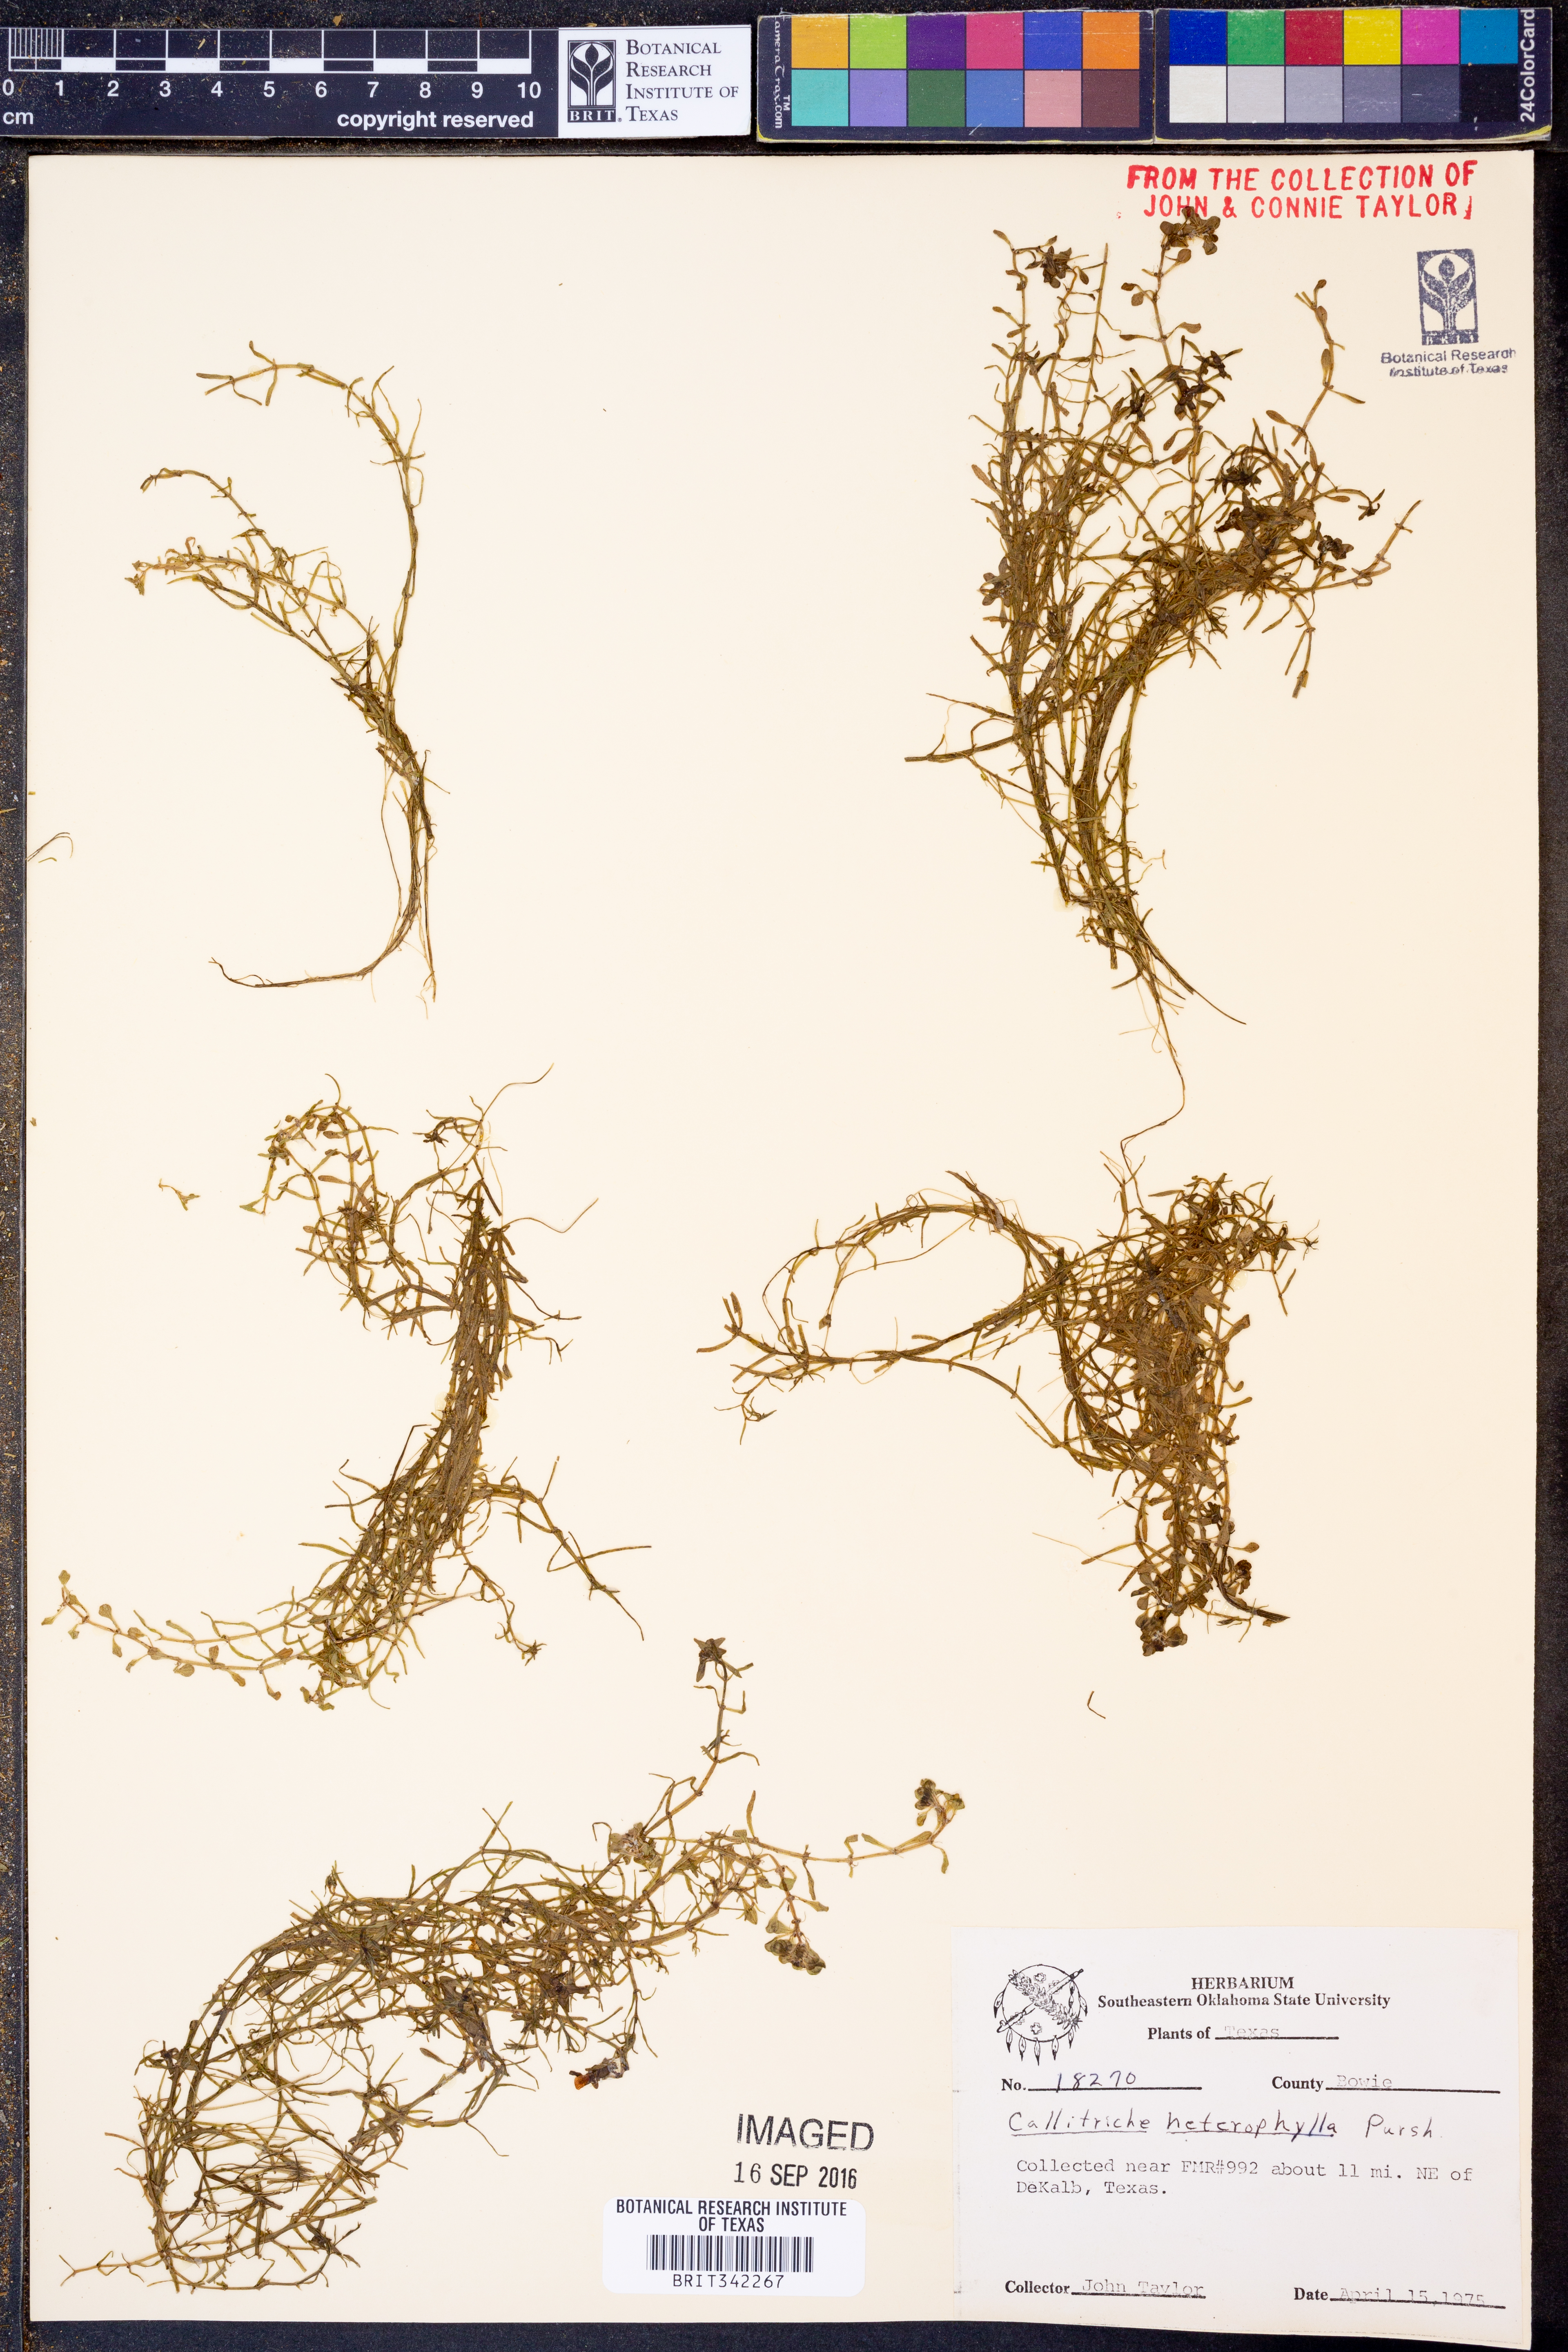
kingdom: Plantae
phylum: Tracheophyta
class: Magnoliopsida
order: Lamiales
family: Plantaginaceae
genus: Callitriche
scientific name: Callitriche heterophylla
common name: Two-headed water-starwort
